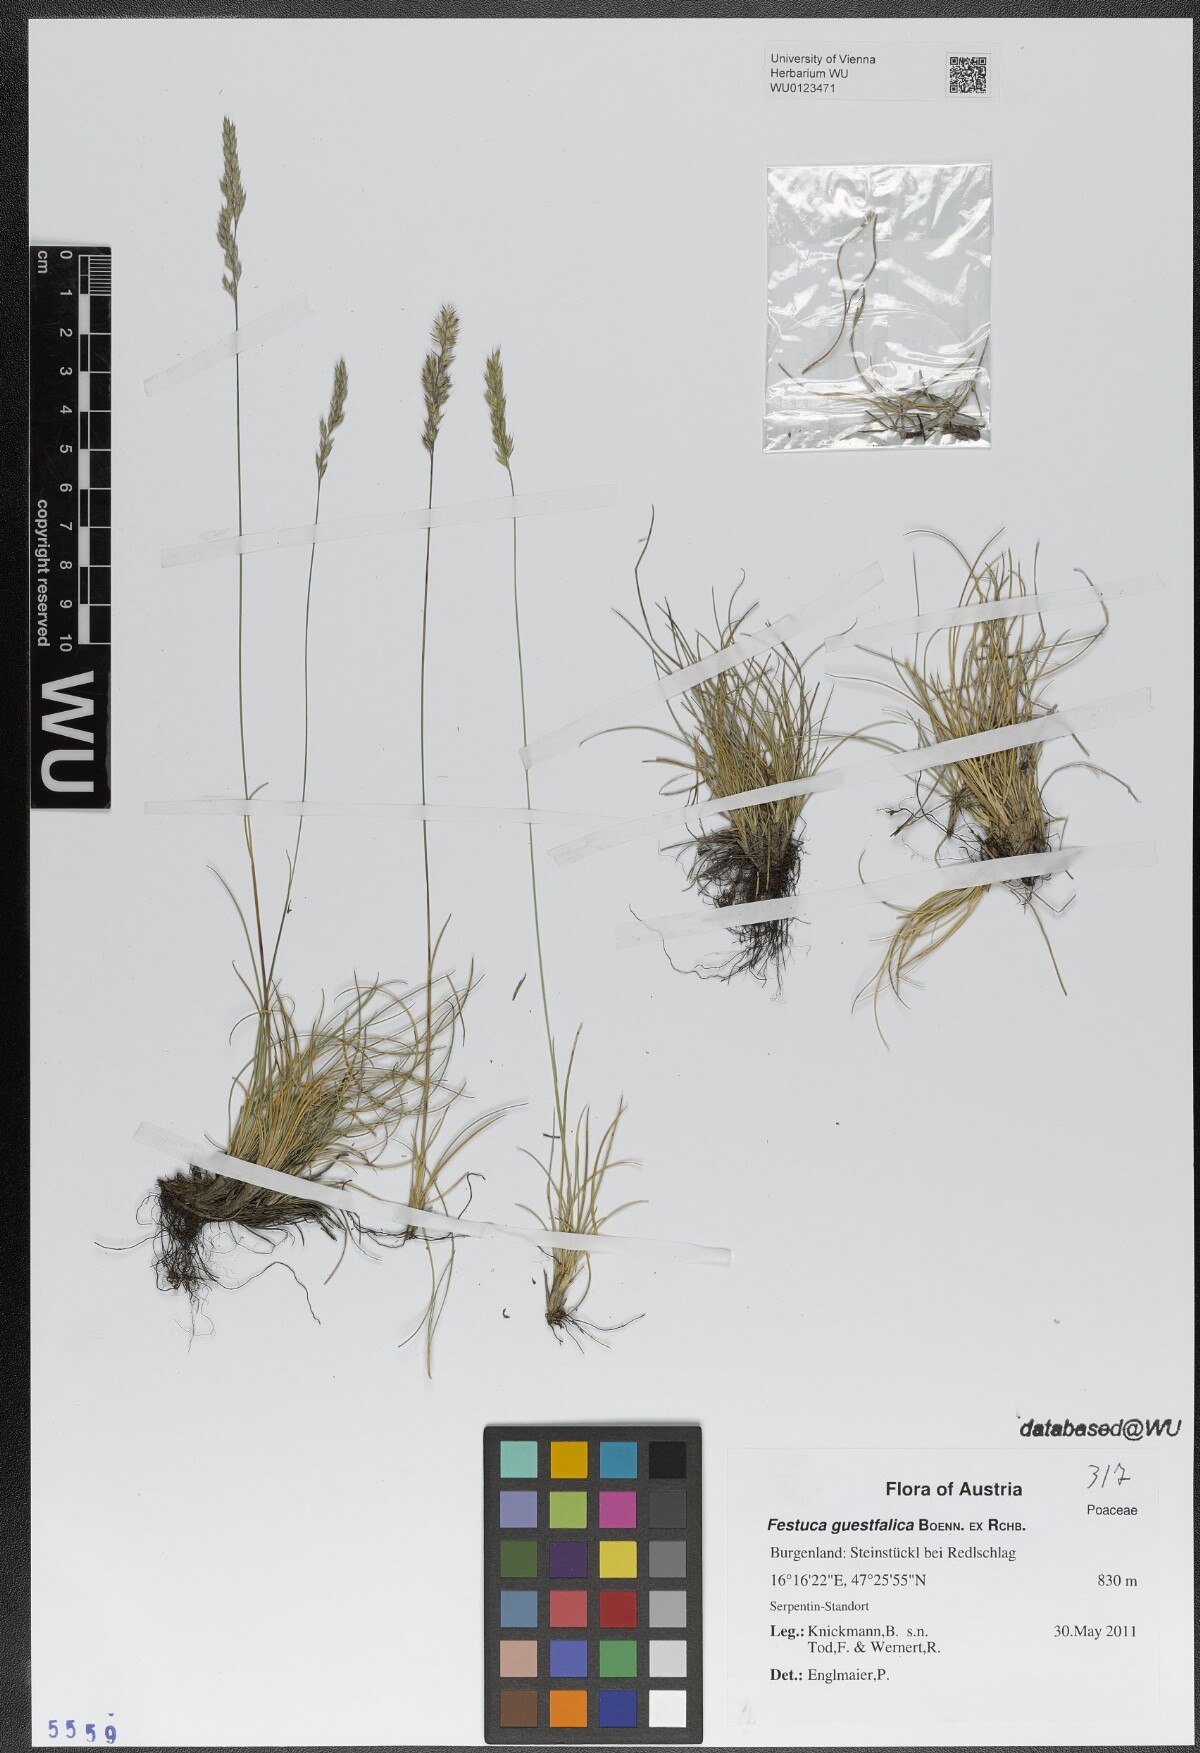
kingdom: Plantae
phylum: Tracheophyta
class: Liliopsida
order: Poales
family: Poaceae
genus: Festuca
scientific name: Festuca guestfalica
